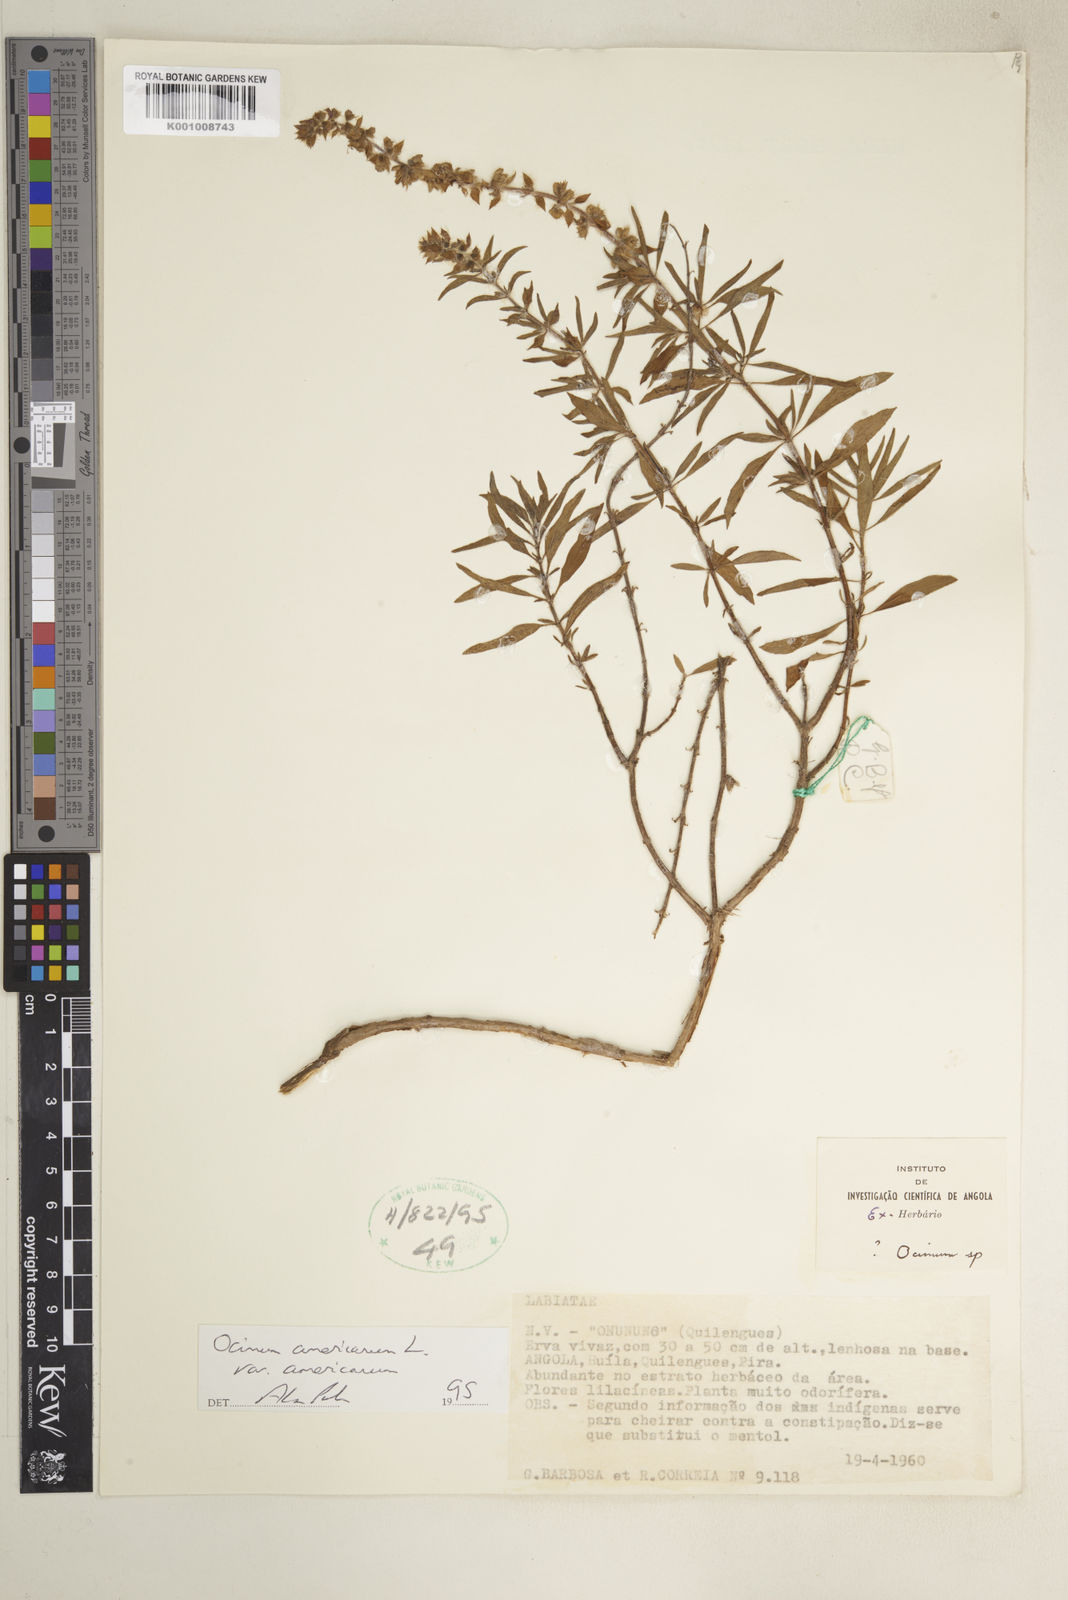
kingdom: Plantae
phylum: Tracheophyta
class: Magnoliopsida
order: Lamiales
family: Lamiaceae
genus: Ocimum
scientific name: Ocimum americanum
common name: American basil
